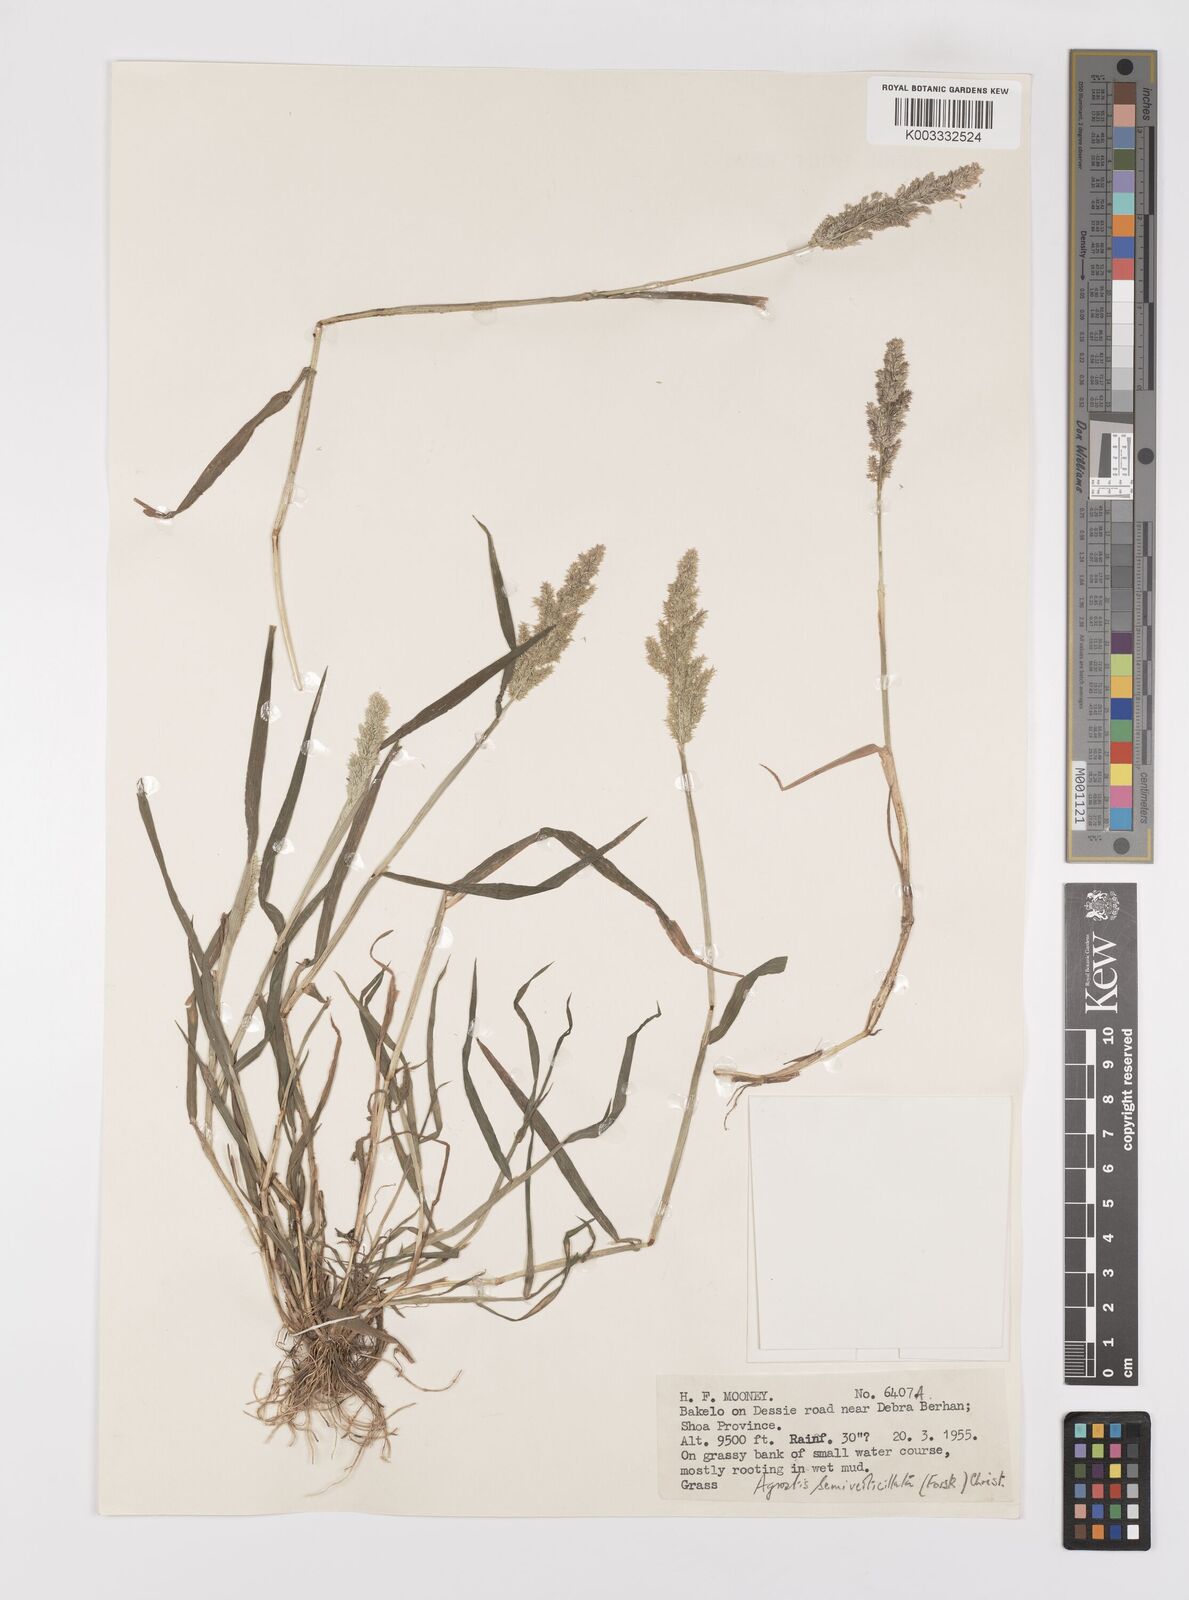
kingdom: Plantae
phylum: Tracheophyta
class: Liliopsida
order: Poales
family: Poaceae
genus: Polypogon
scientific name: Polypogon viridis
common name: Water bent
